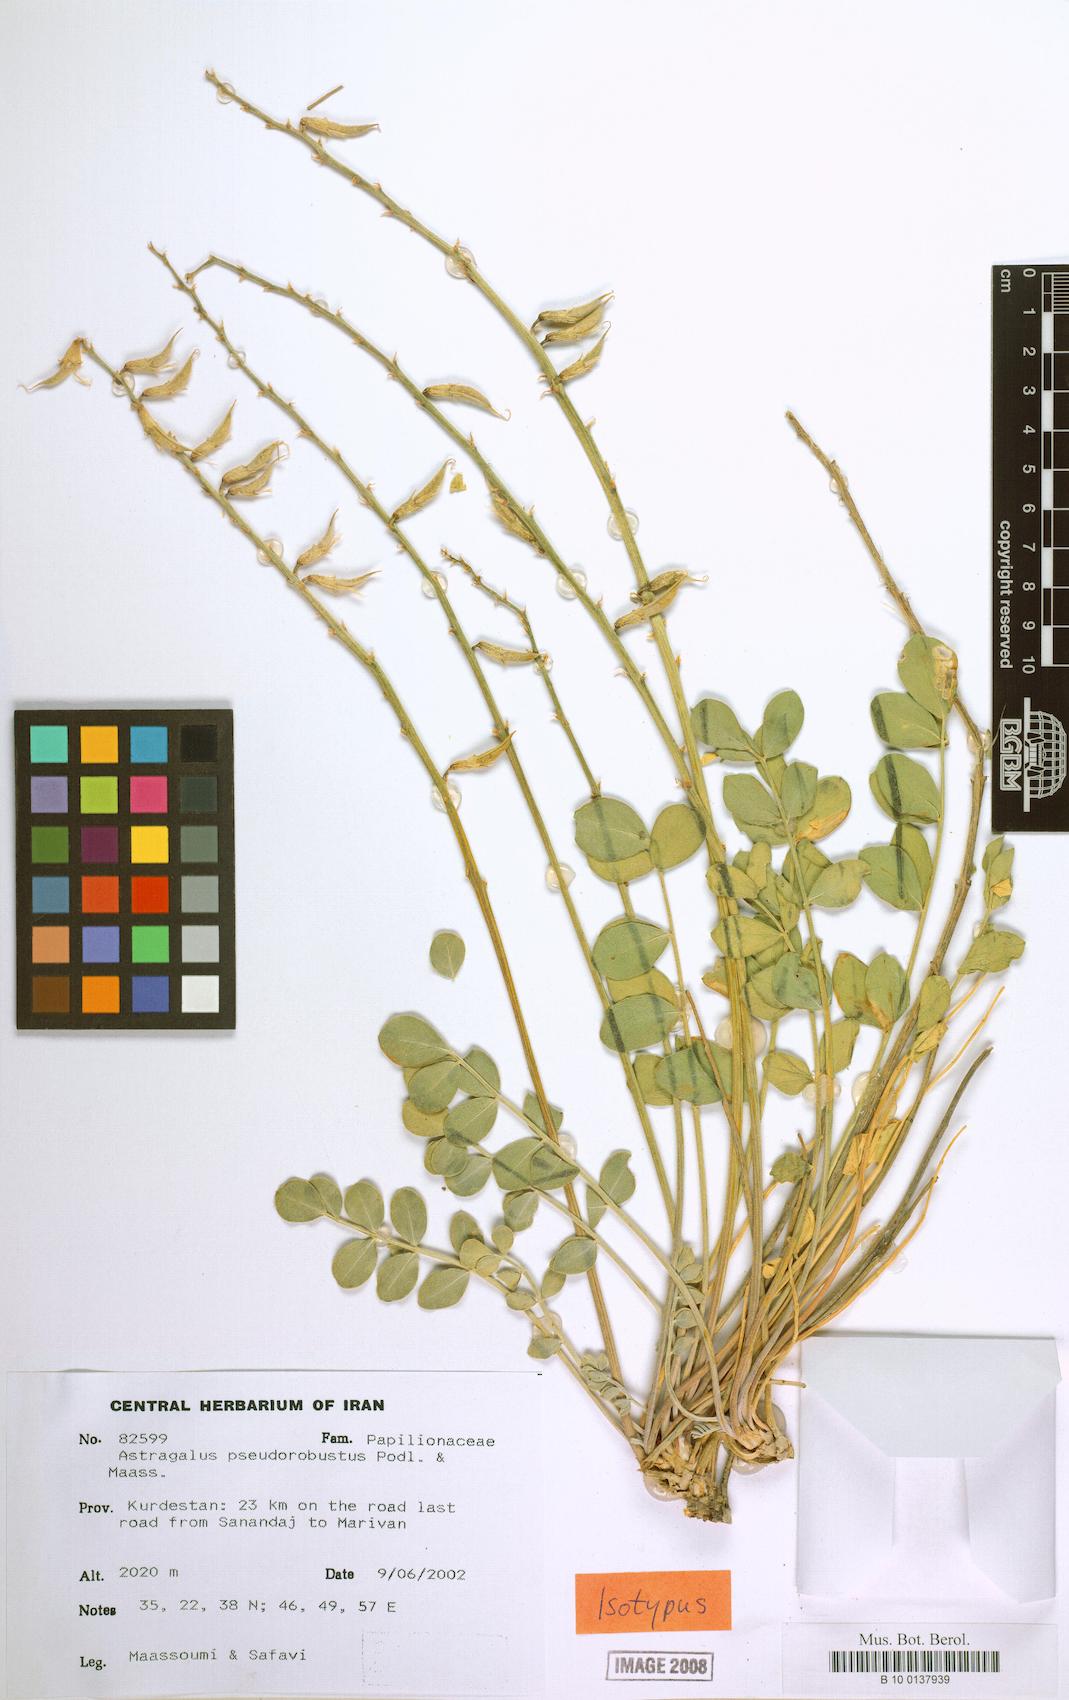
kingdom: Plantae
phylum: Tracheophyta
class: Magnoliopsida
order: Fabales
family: Fabaceae
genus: Astragalus
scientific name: Astragalus pseudorobustus
